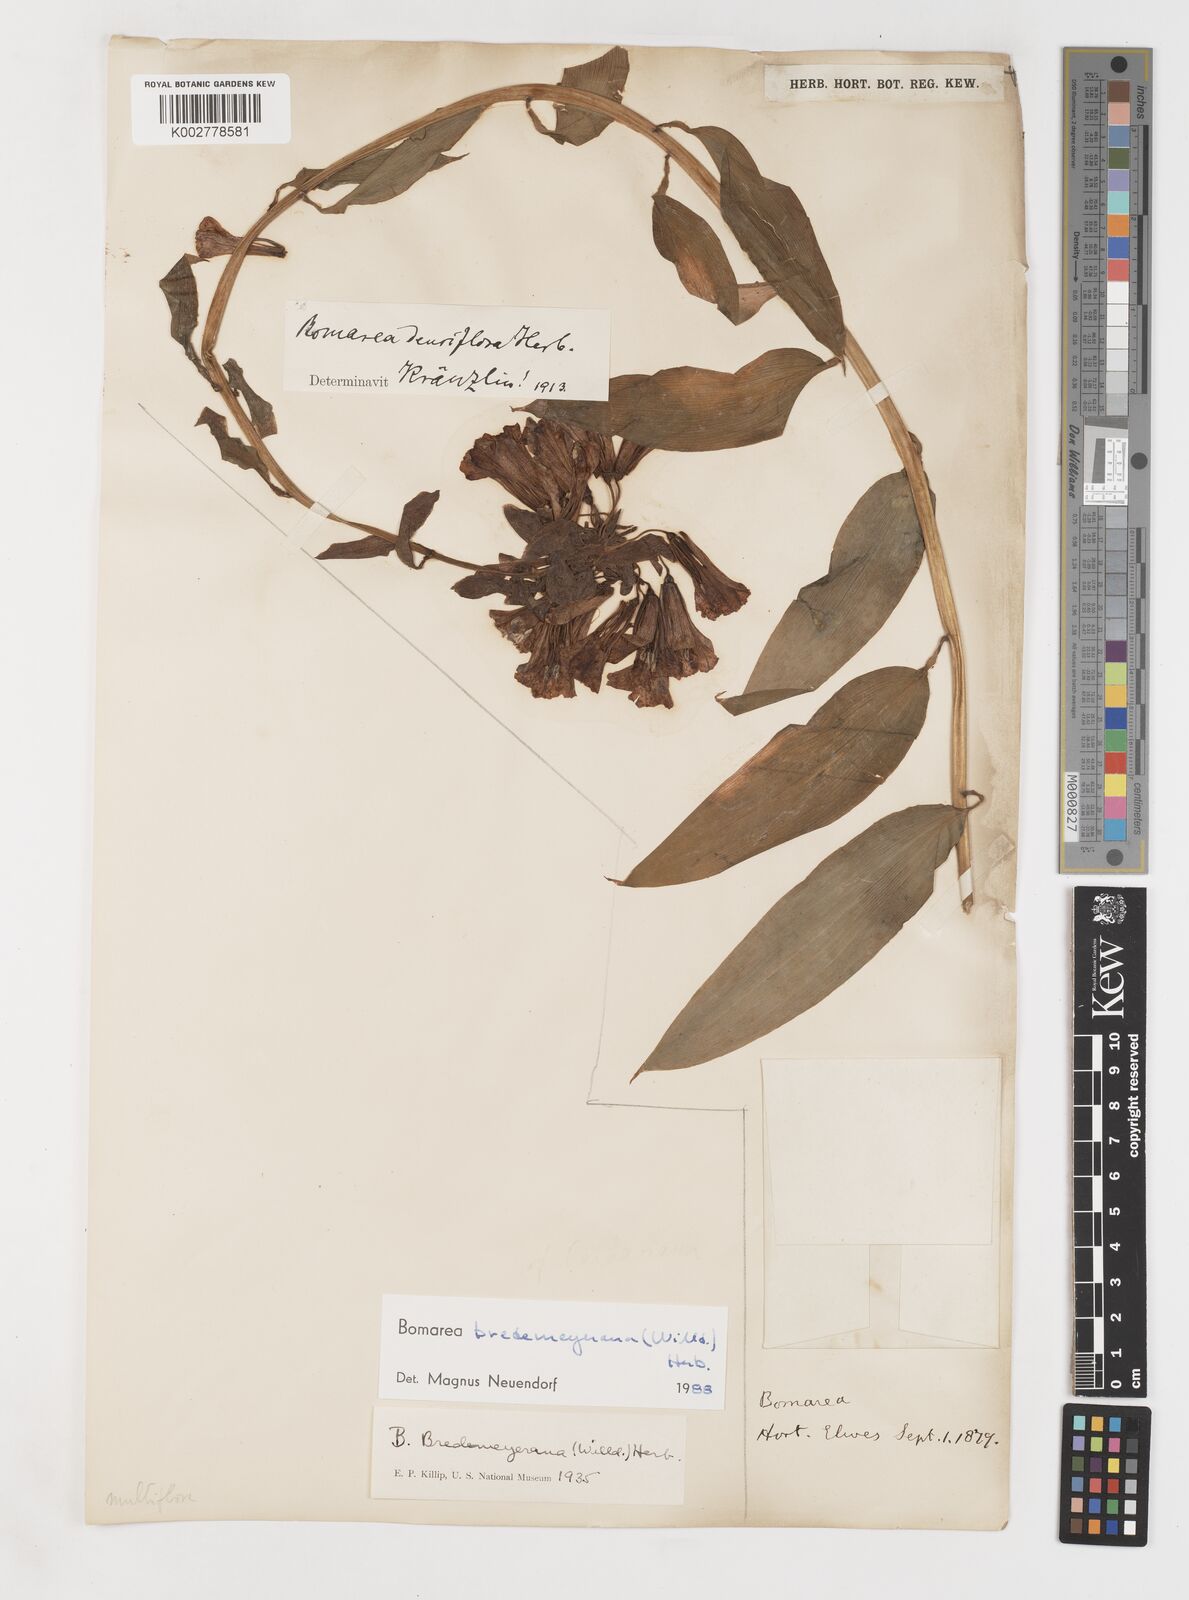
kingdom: Plantae
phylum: Tracheophyta
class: Liliopsida
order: Liliales
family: Alstroemeriaceae
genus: Bomarea
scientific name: Bomarea multiflora
